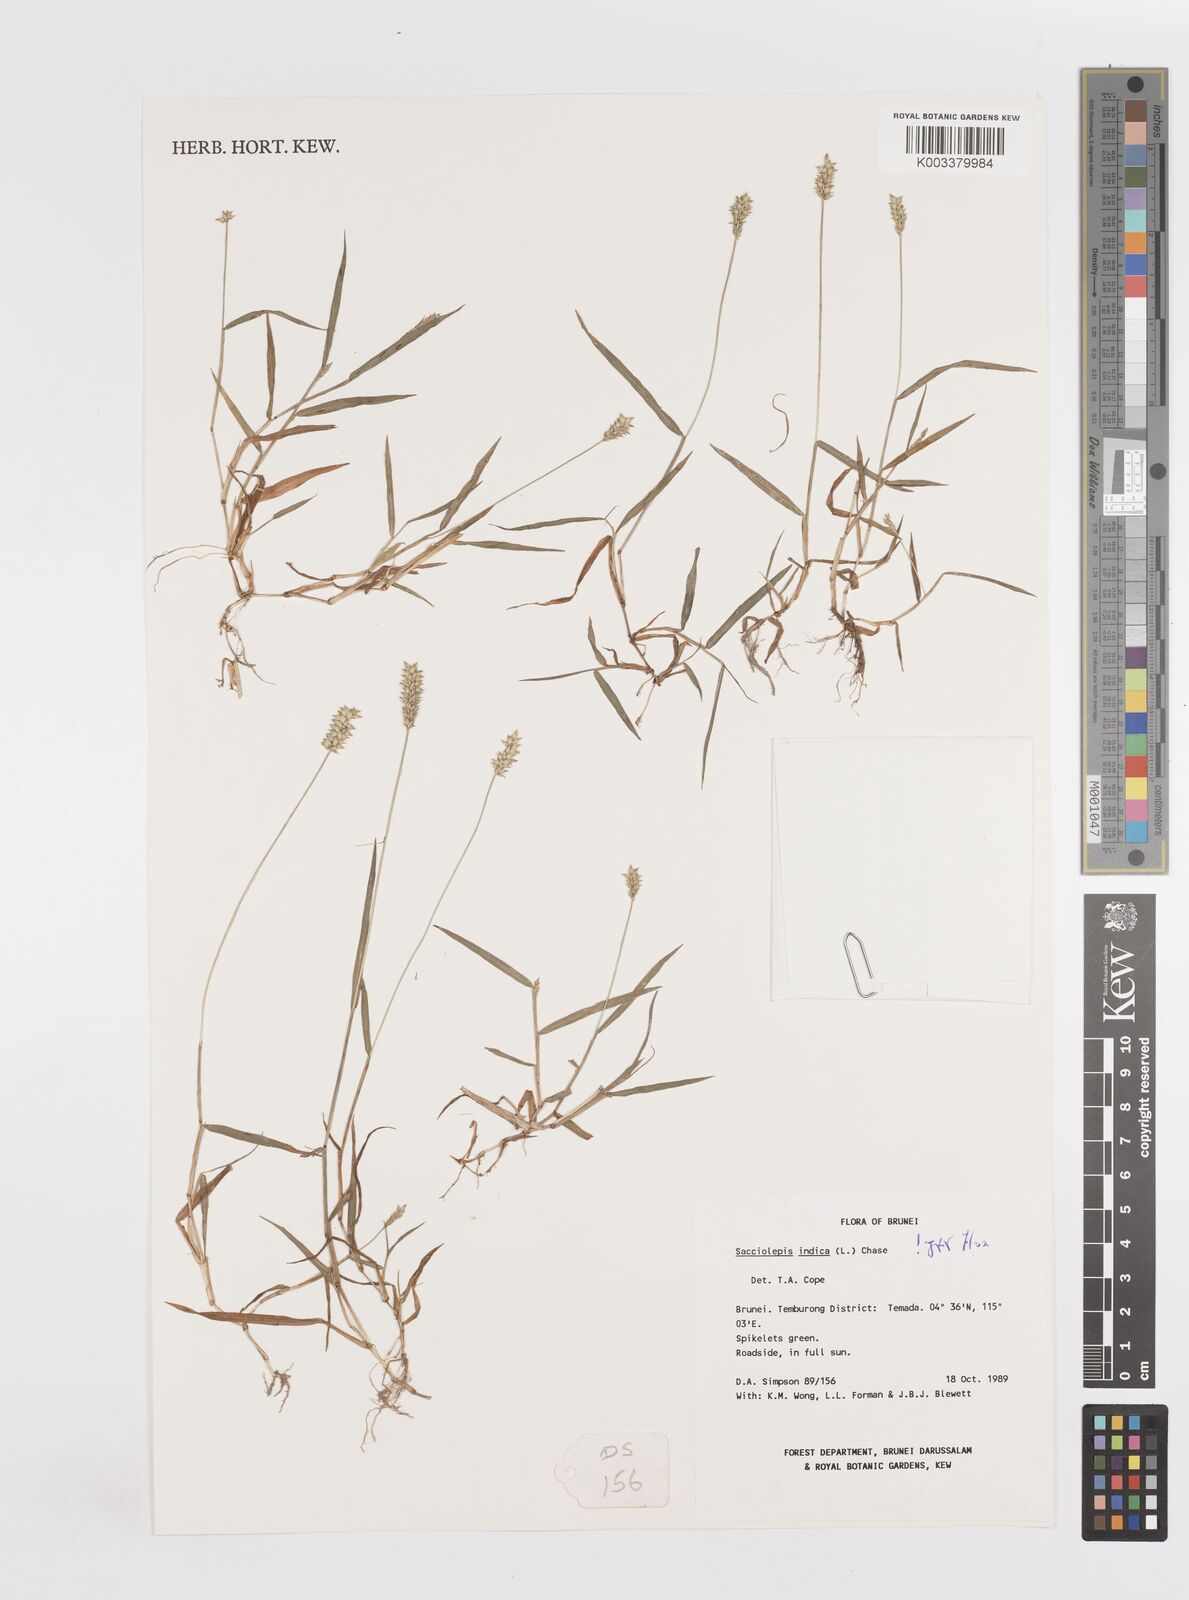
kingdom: Plantae
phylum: Tracheophyta
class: Liliopsida
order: Poales
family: Poaceae
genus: Sacciolepis
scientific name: Sacciolepis indica
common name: Glenwoodgrass
